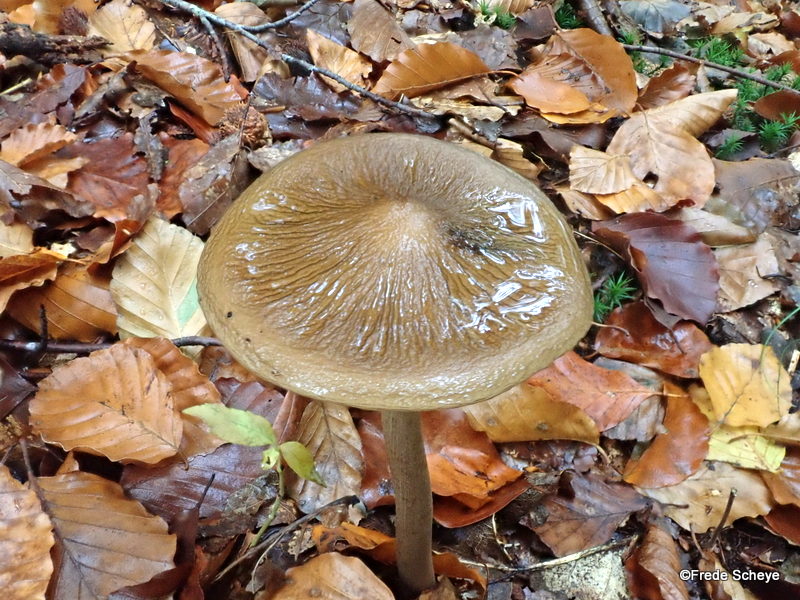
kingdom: Fungi
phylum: Basidiomycota
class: Agaricomycetes
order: Agaricales
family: Physalacriaceae
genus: Hymenopellis
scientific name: Hymenopellis radicata
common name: almindelig pælerodshat
